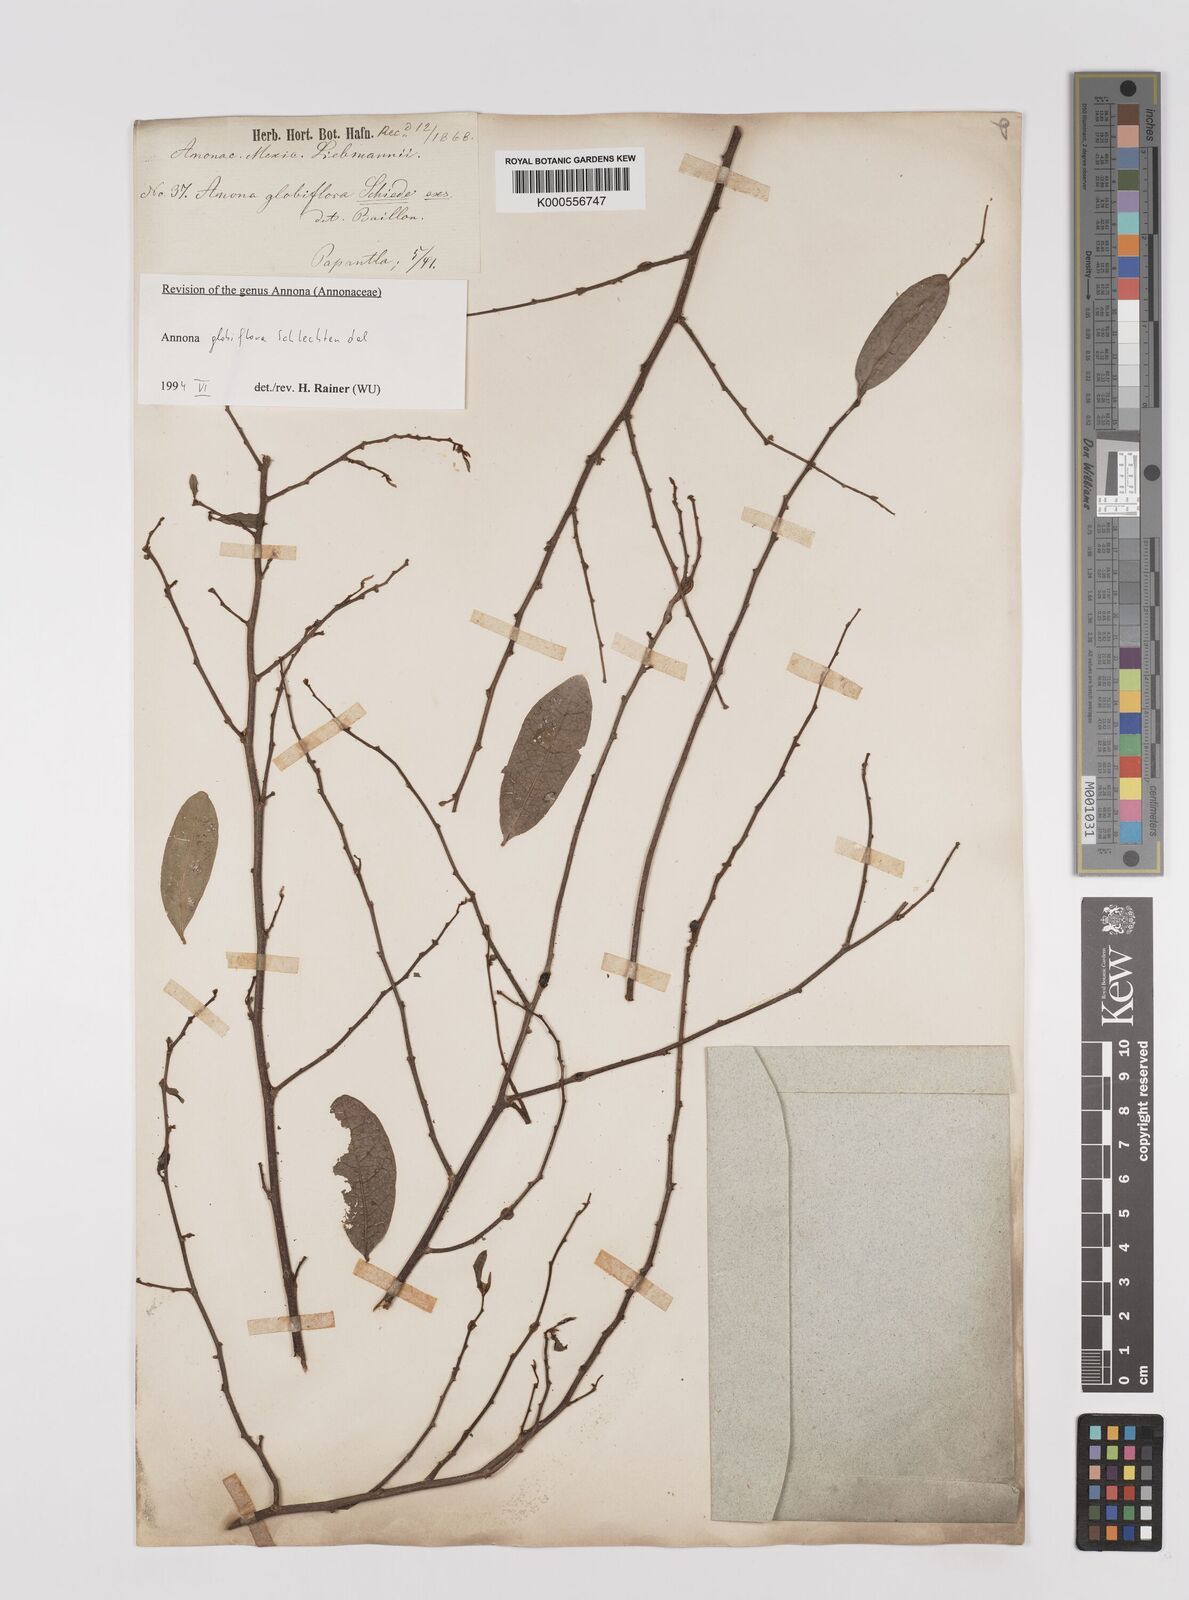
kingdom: Plantae
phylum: Tracheophyta
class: Magnoliopsida
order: Magnoliales
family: Annonaceae
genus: Annona
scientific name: Annona globiflora
